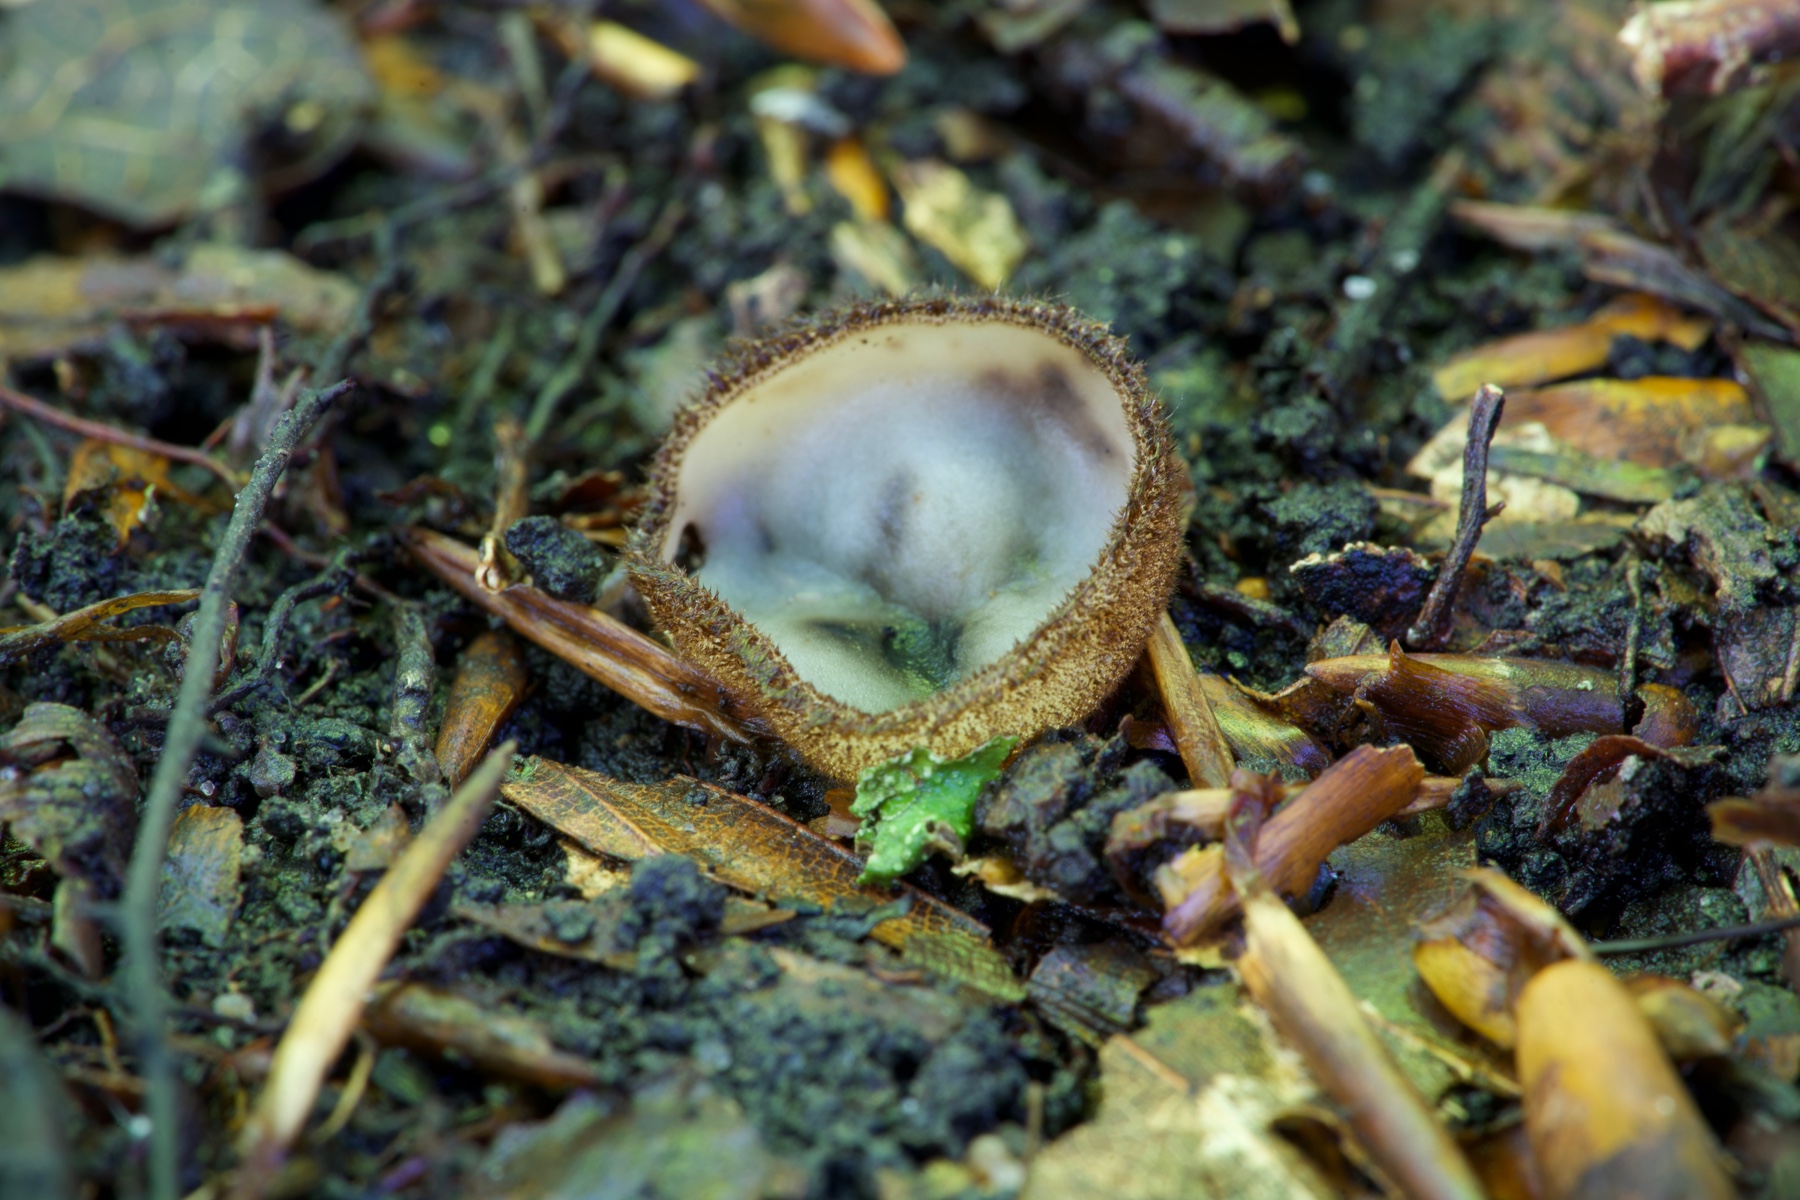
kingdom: Fungi
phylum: Ascomycota
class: Pezizomycetes
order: Pezizales
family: Pyronemataceae
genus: Humaria
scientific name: Humaria hemisphaerica
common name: halvkugleformet børstebæger
